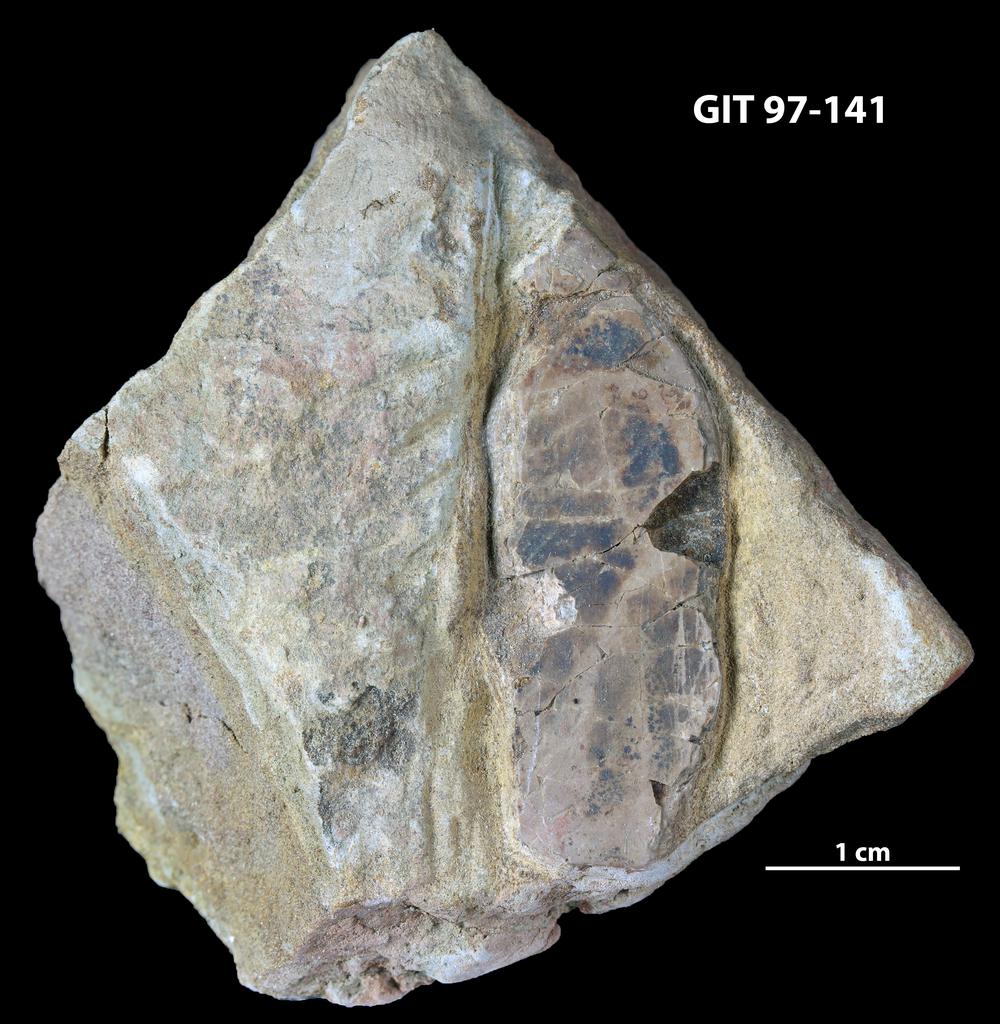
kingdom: Animalia
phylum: Chordata
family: Holonematidae
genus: Holonema
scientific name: Holonema
